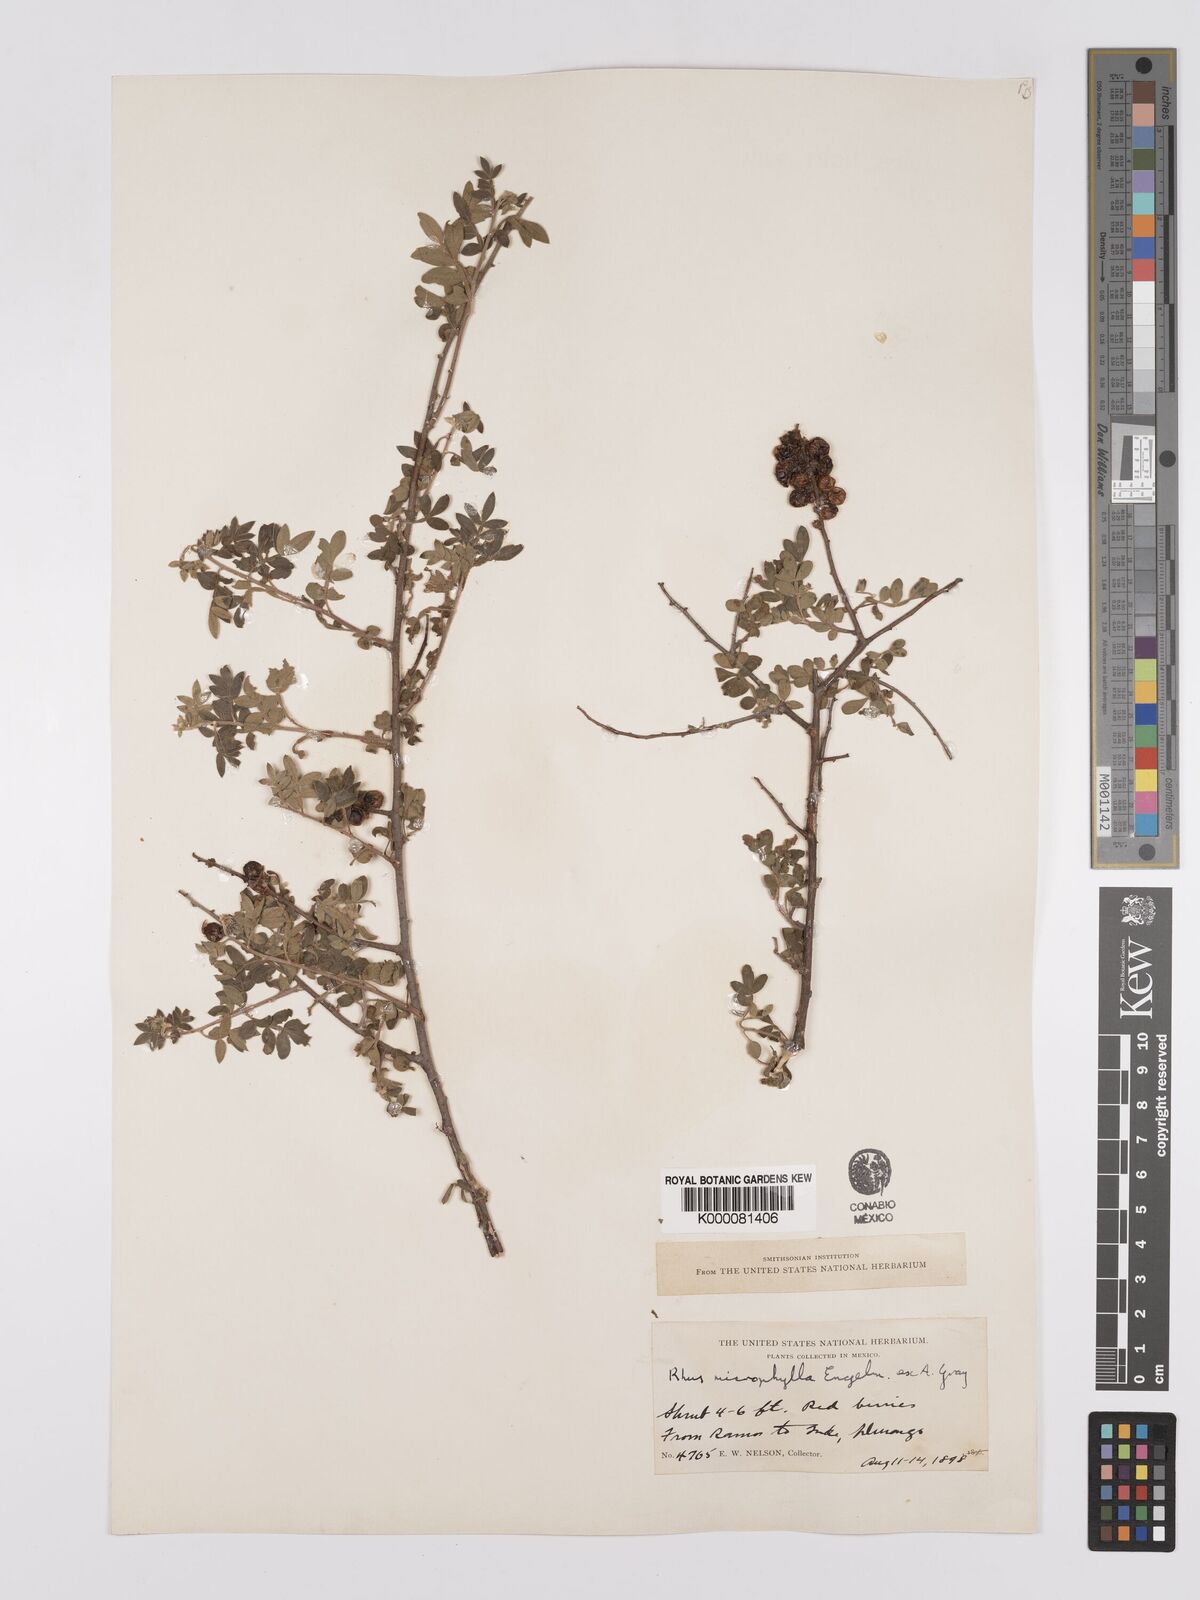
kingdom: Plantae
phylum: Tracheophyta
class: Magnoliopsida
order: Sapindales
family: Anacardiaceae
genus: Rhus
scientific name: Rhus
